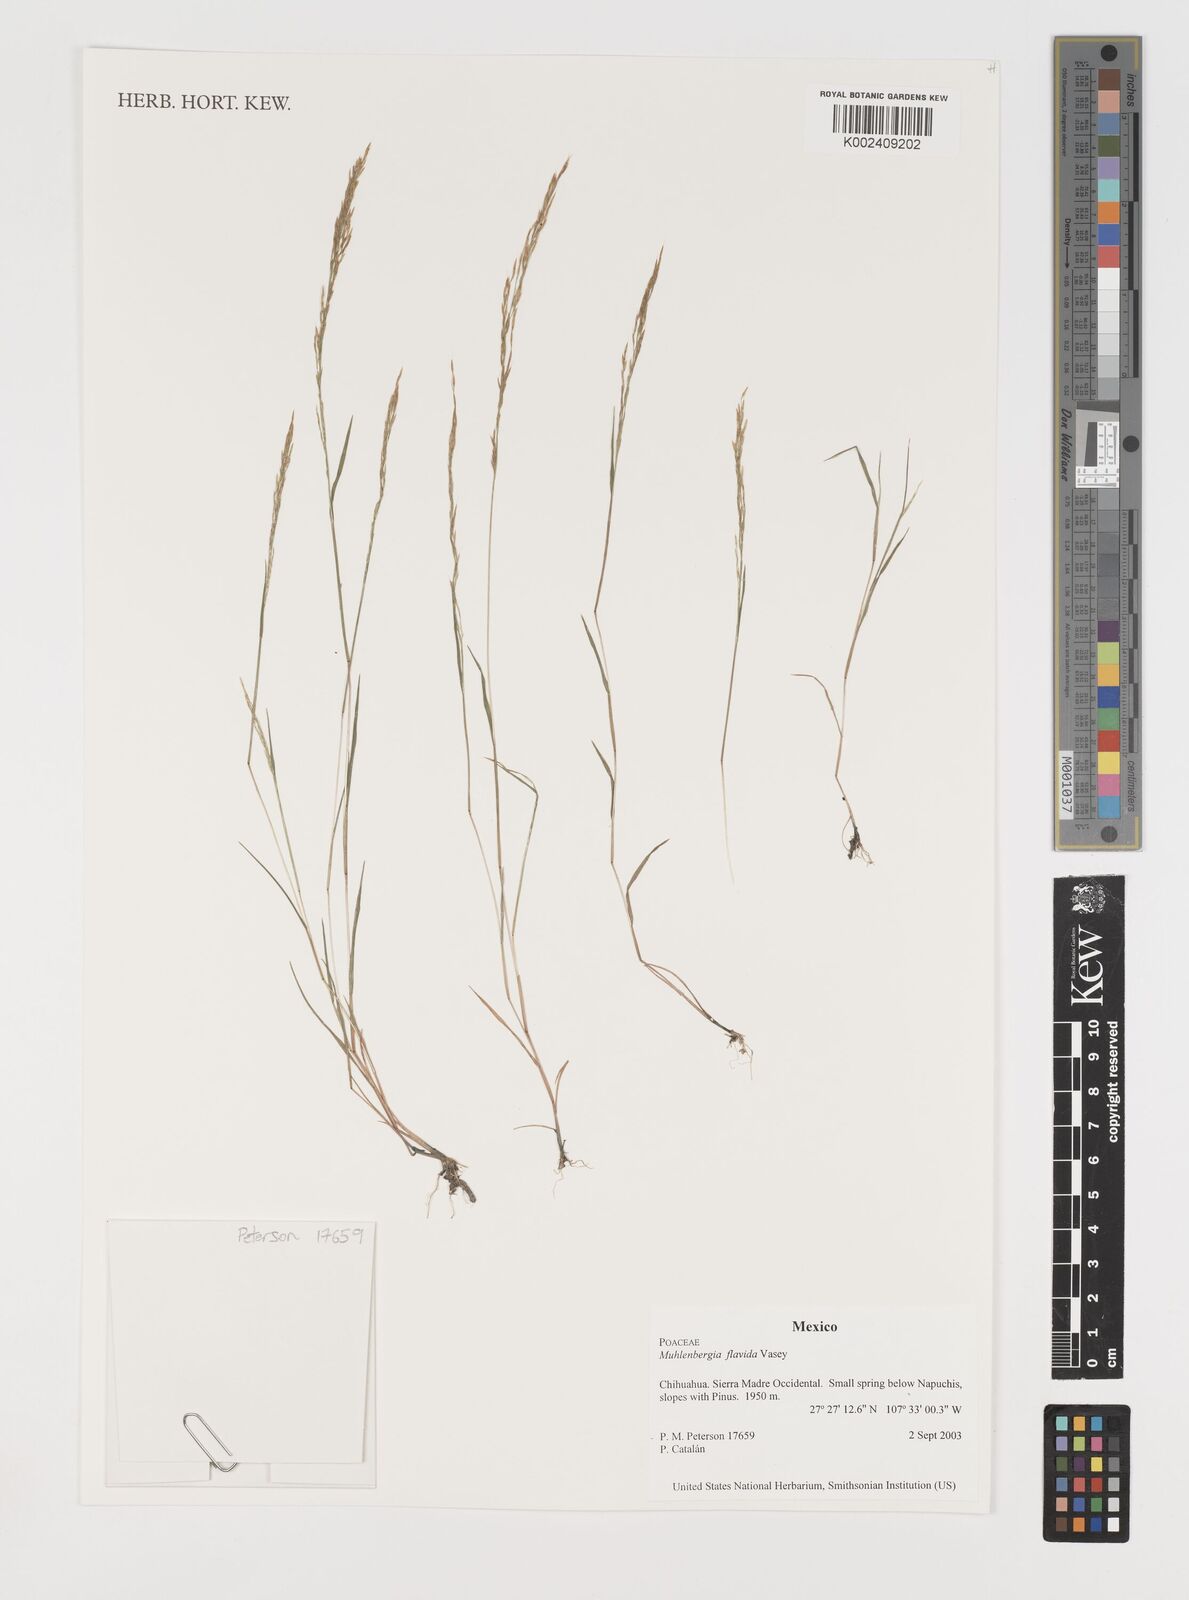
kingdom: Plantae
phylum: Tracheophyta
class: Liliopsida
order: Poales
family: Poaceae
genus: Muhlenbergia
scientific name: Muhlenbergia flavida
